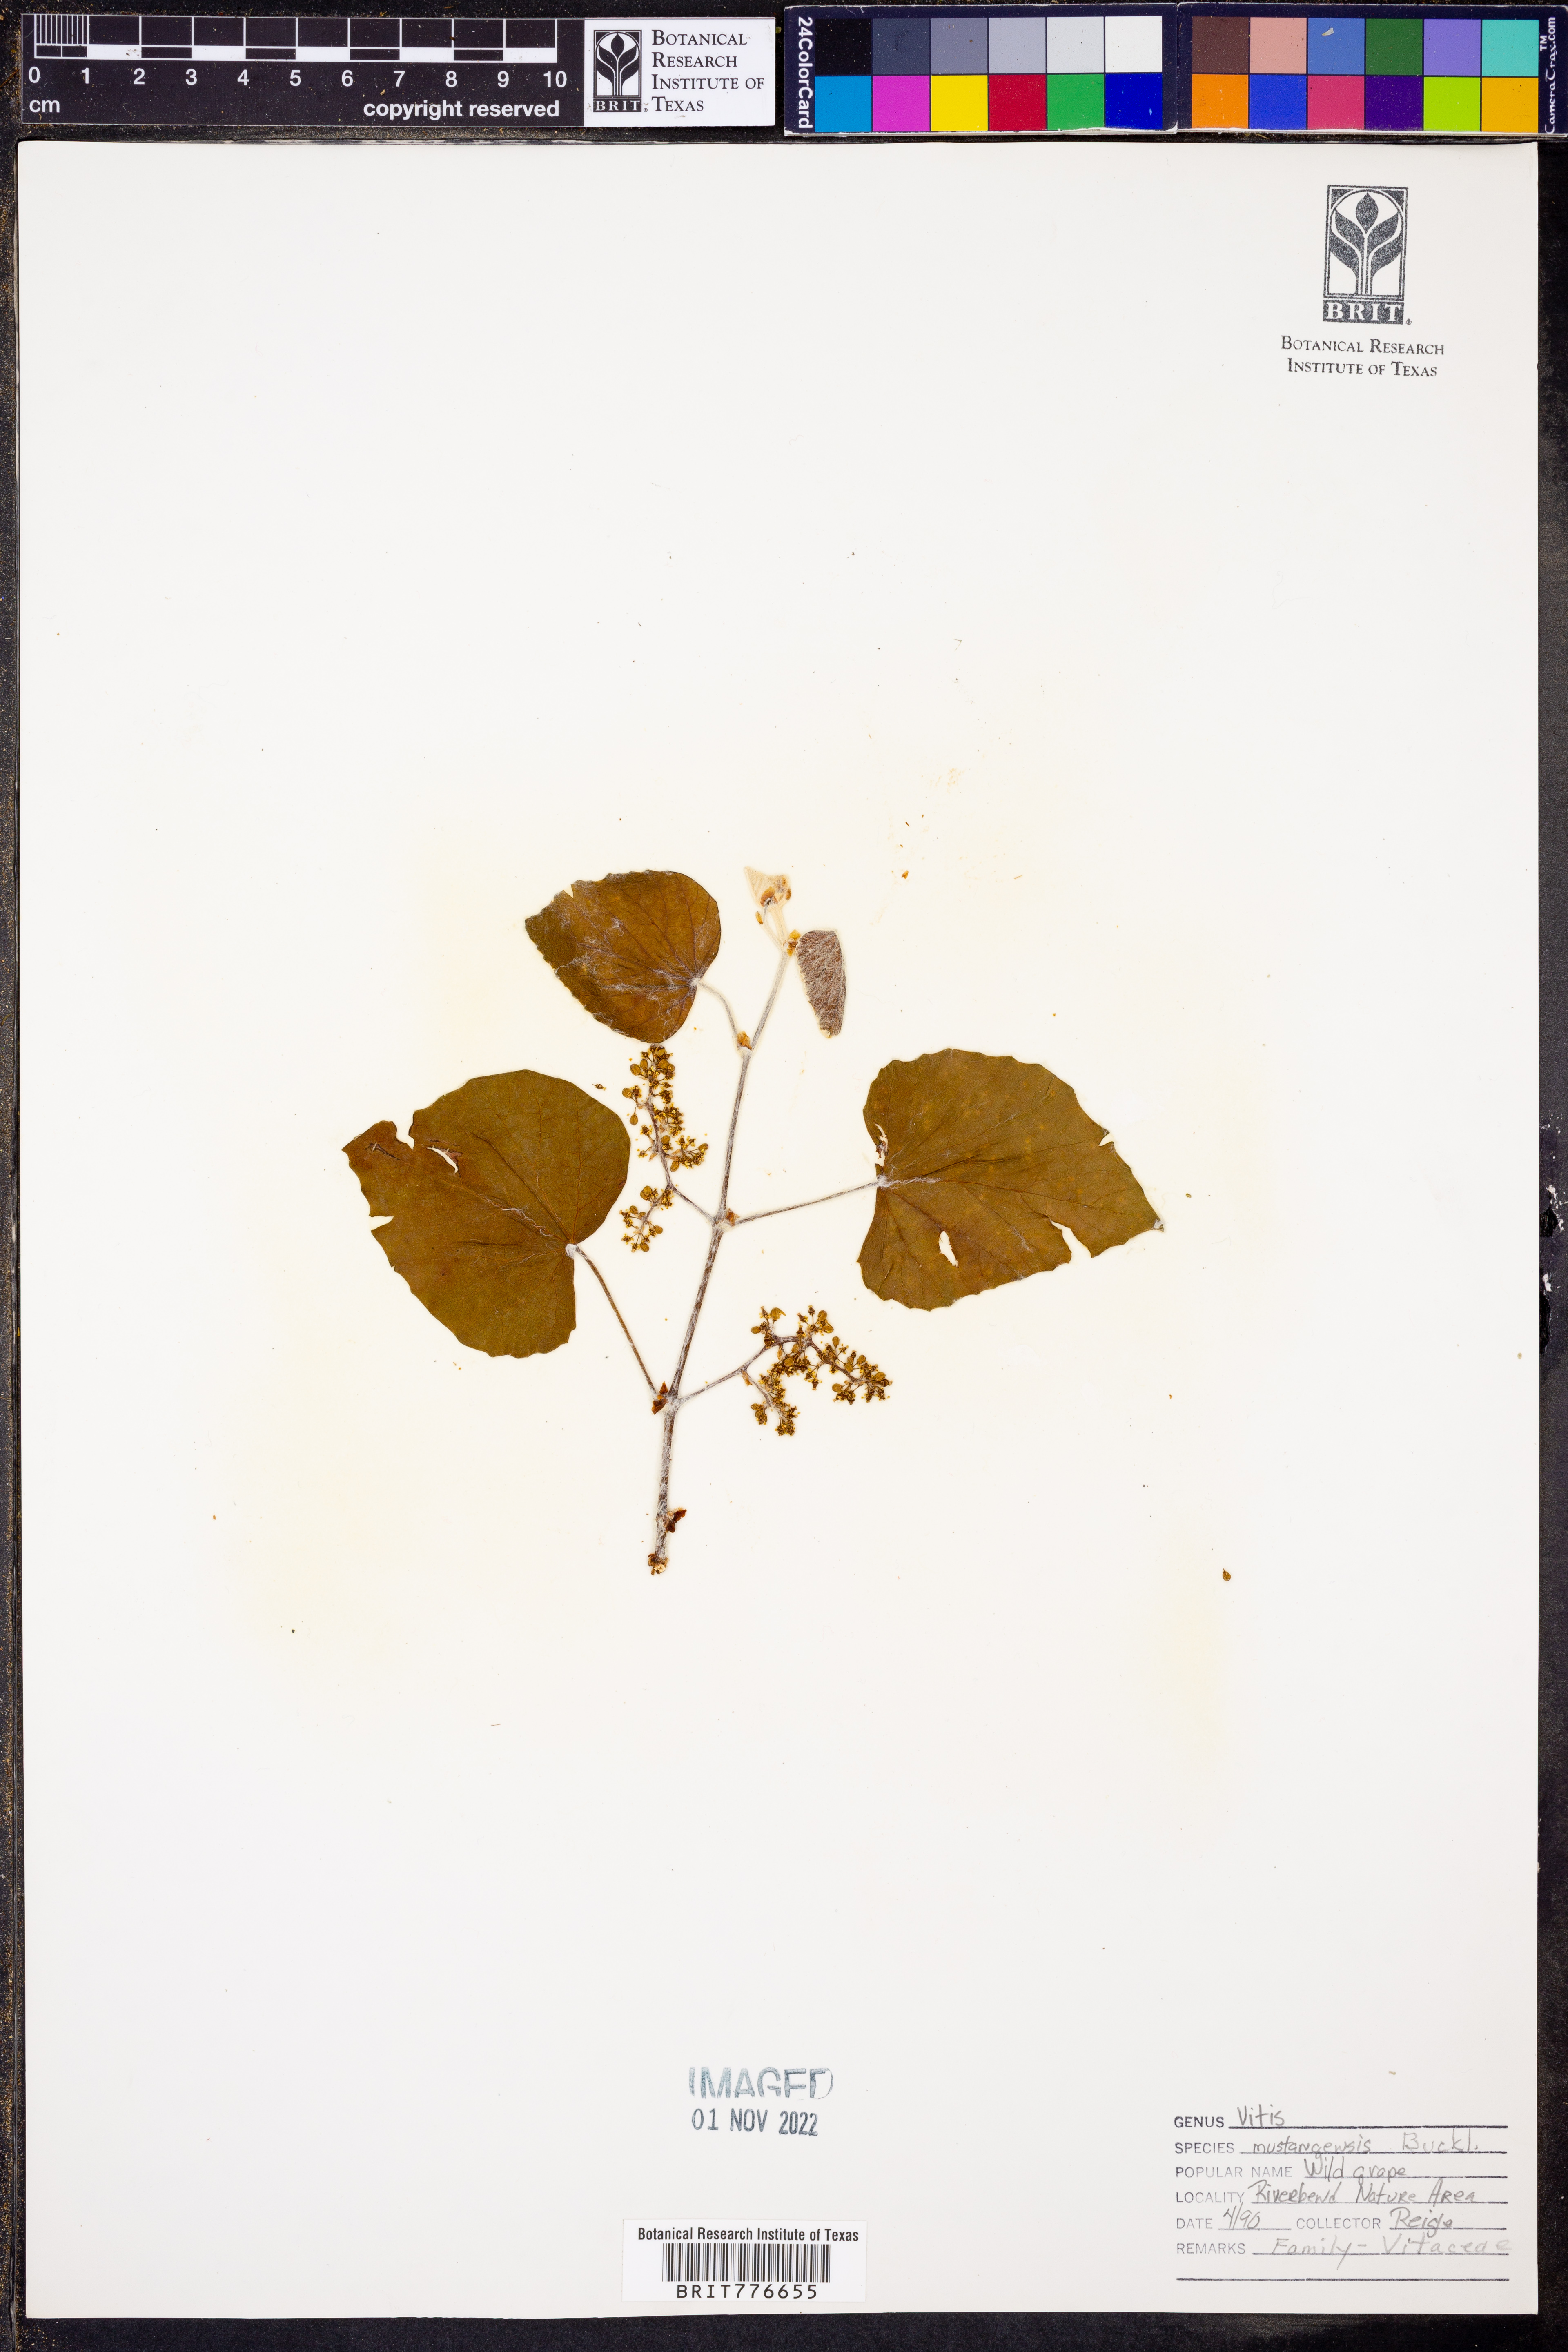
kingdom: Plantae
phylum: Tracheophyta
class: Magnoliopsida
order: Vitales
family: Vitaceae
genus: Vitis
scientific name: Vitis mustangensis
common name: Mustang grape
